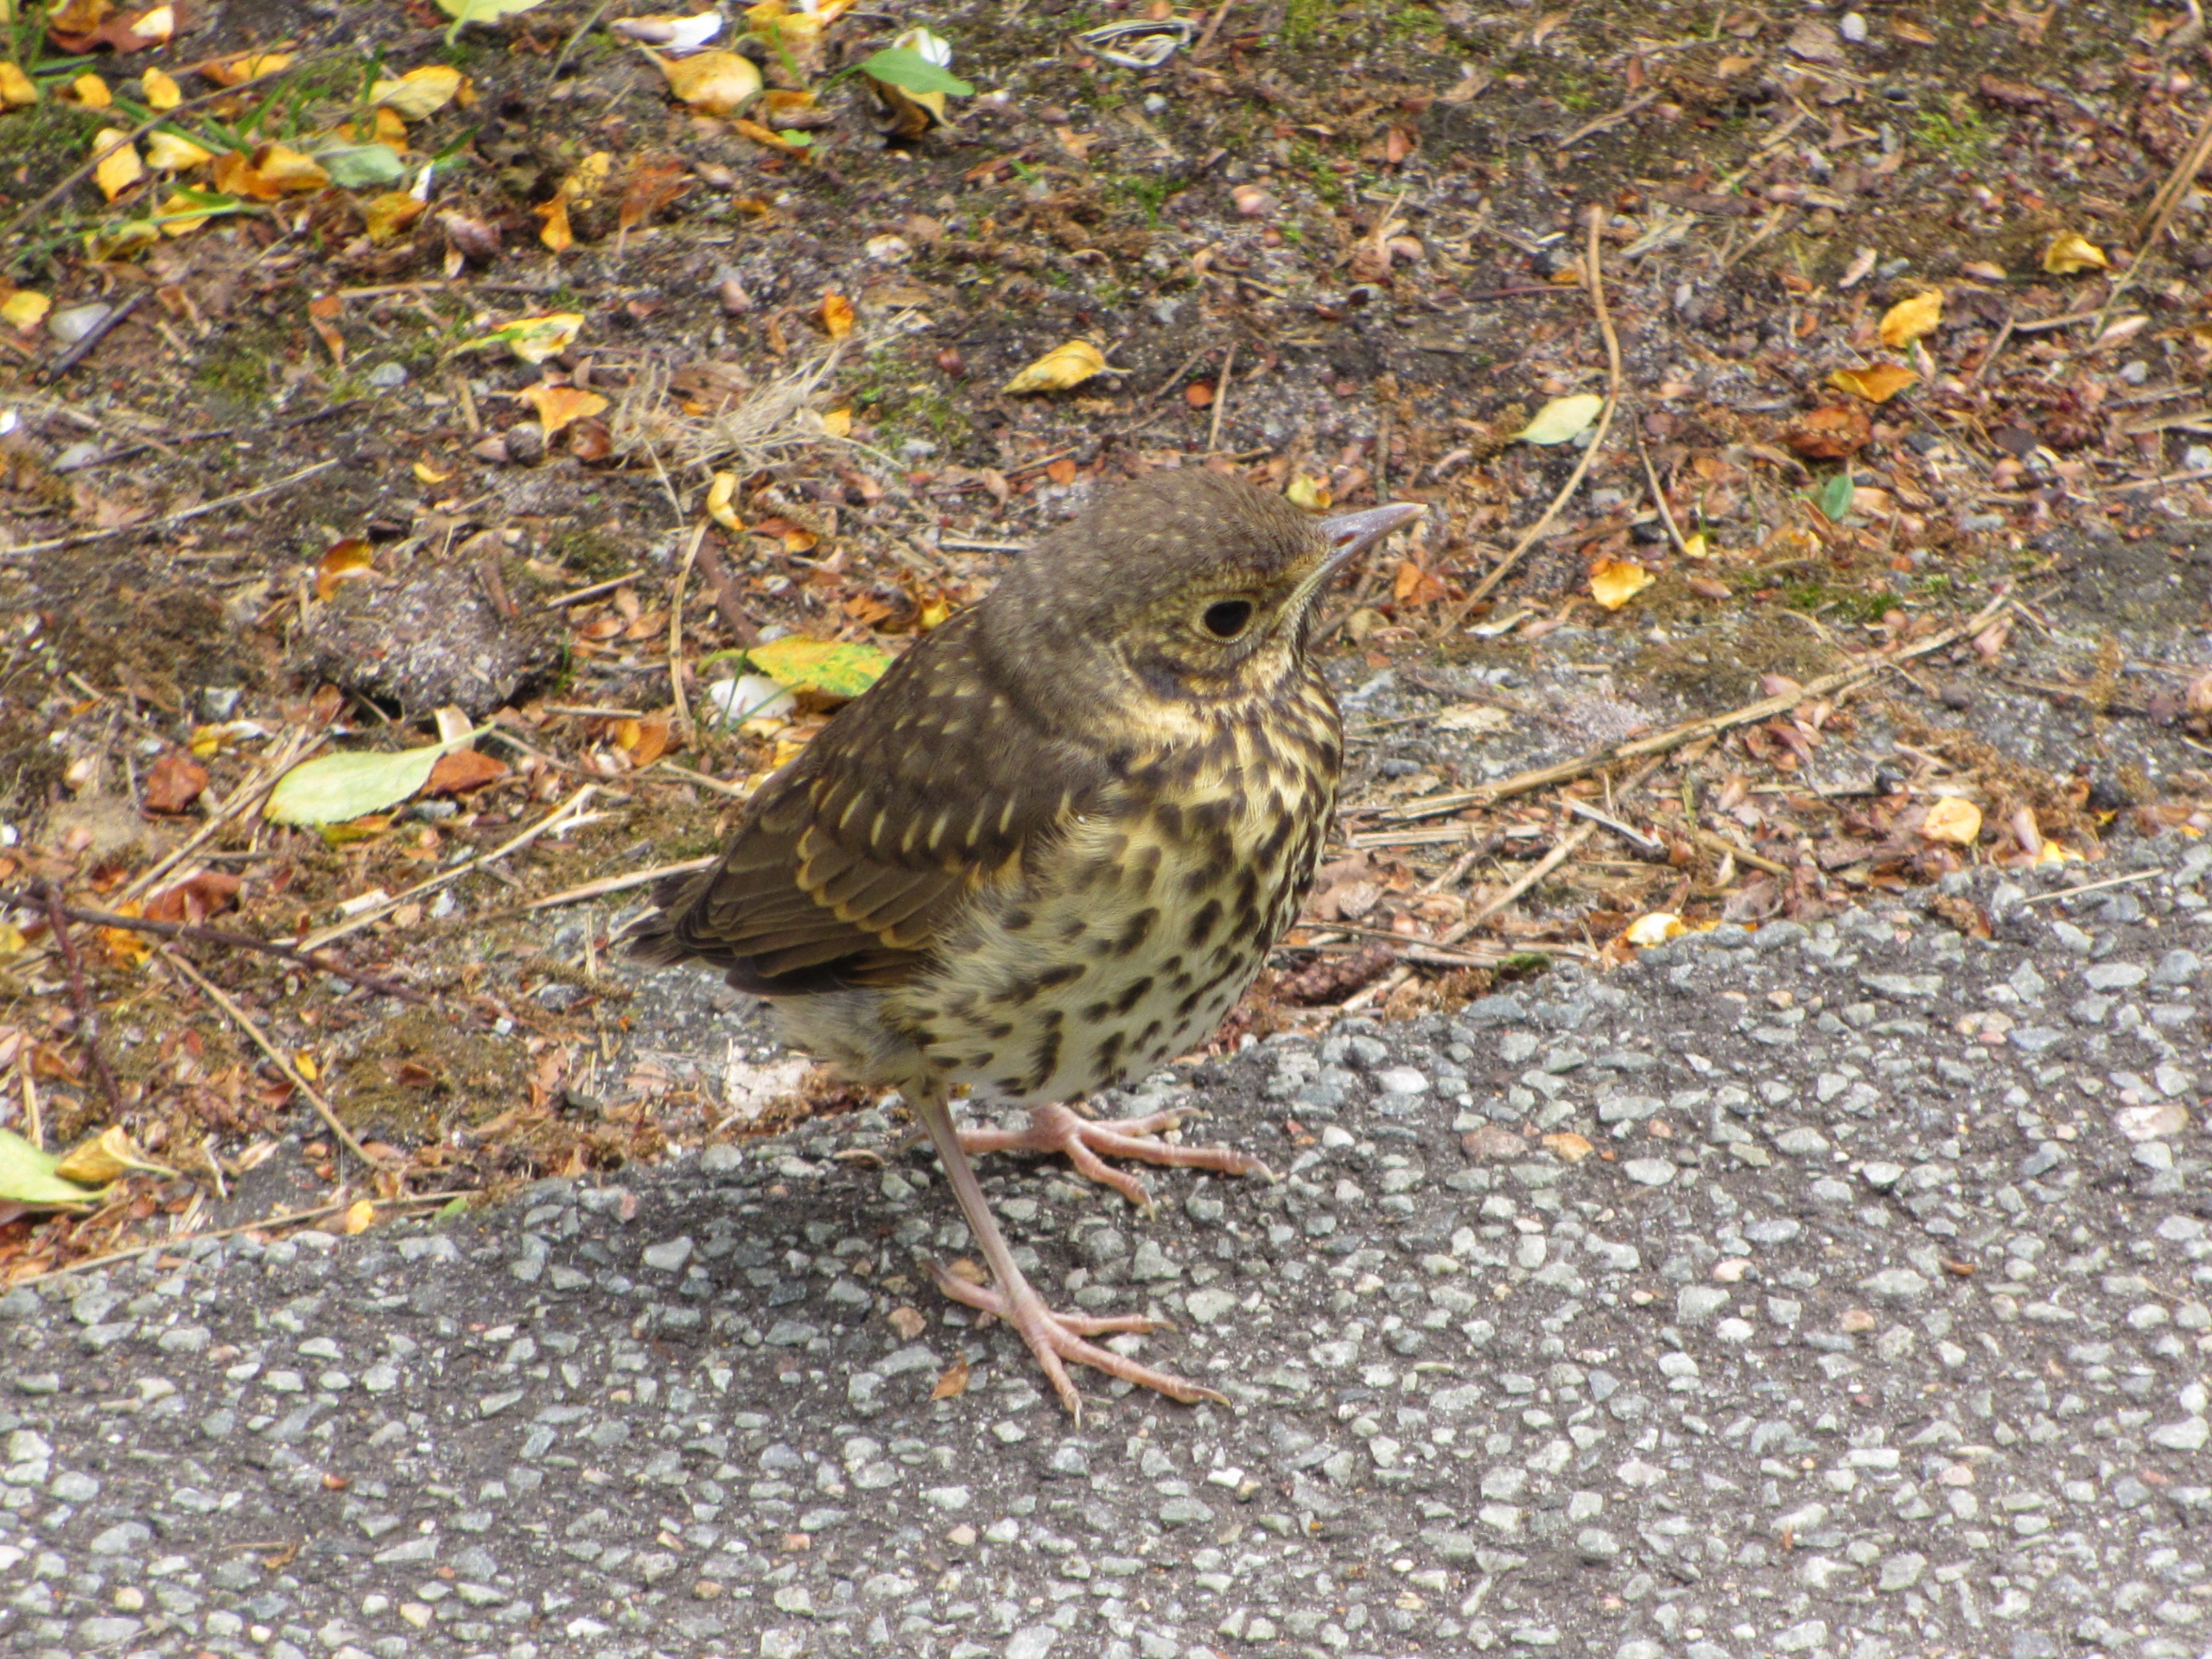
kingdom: Animalia
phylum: Chordata
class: Aves
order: Passeriformes
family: Turdidae
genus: Turdus
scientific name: Turdus philomelos
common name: Sangdrossel
